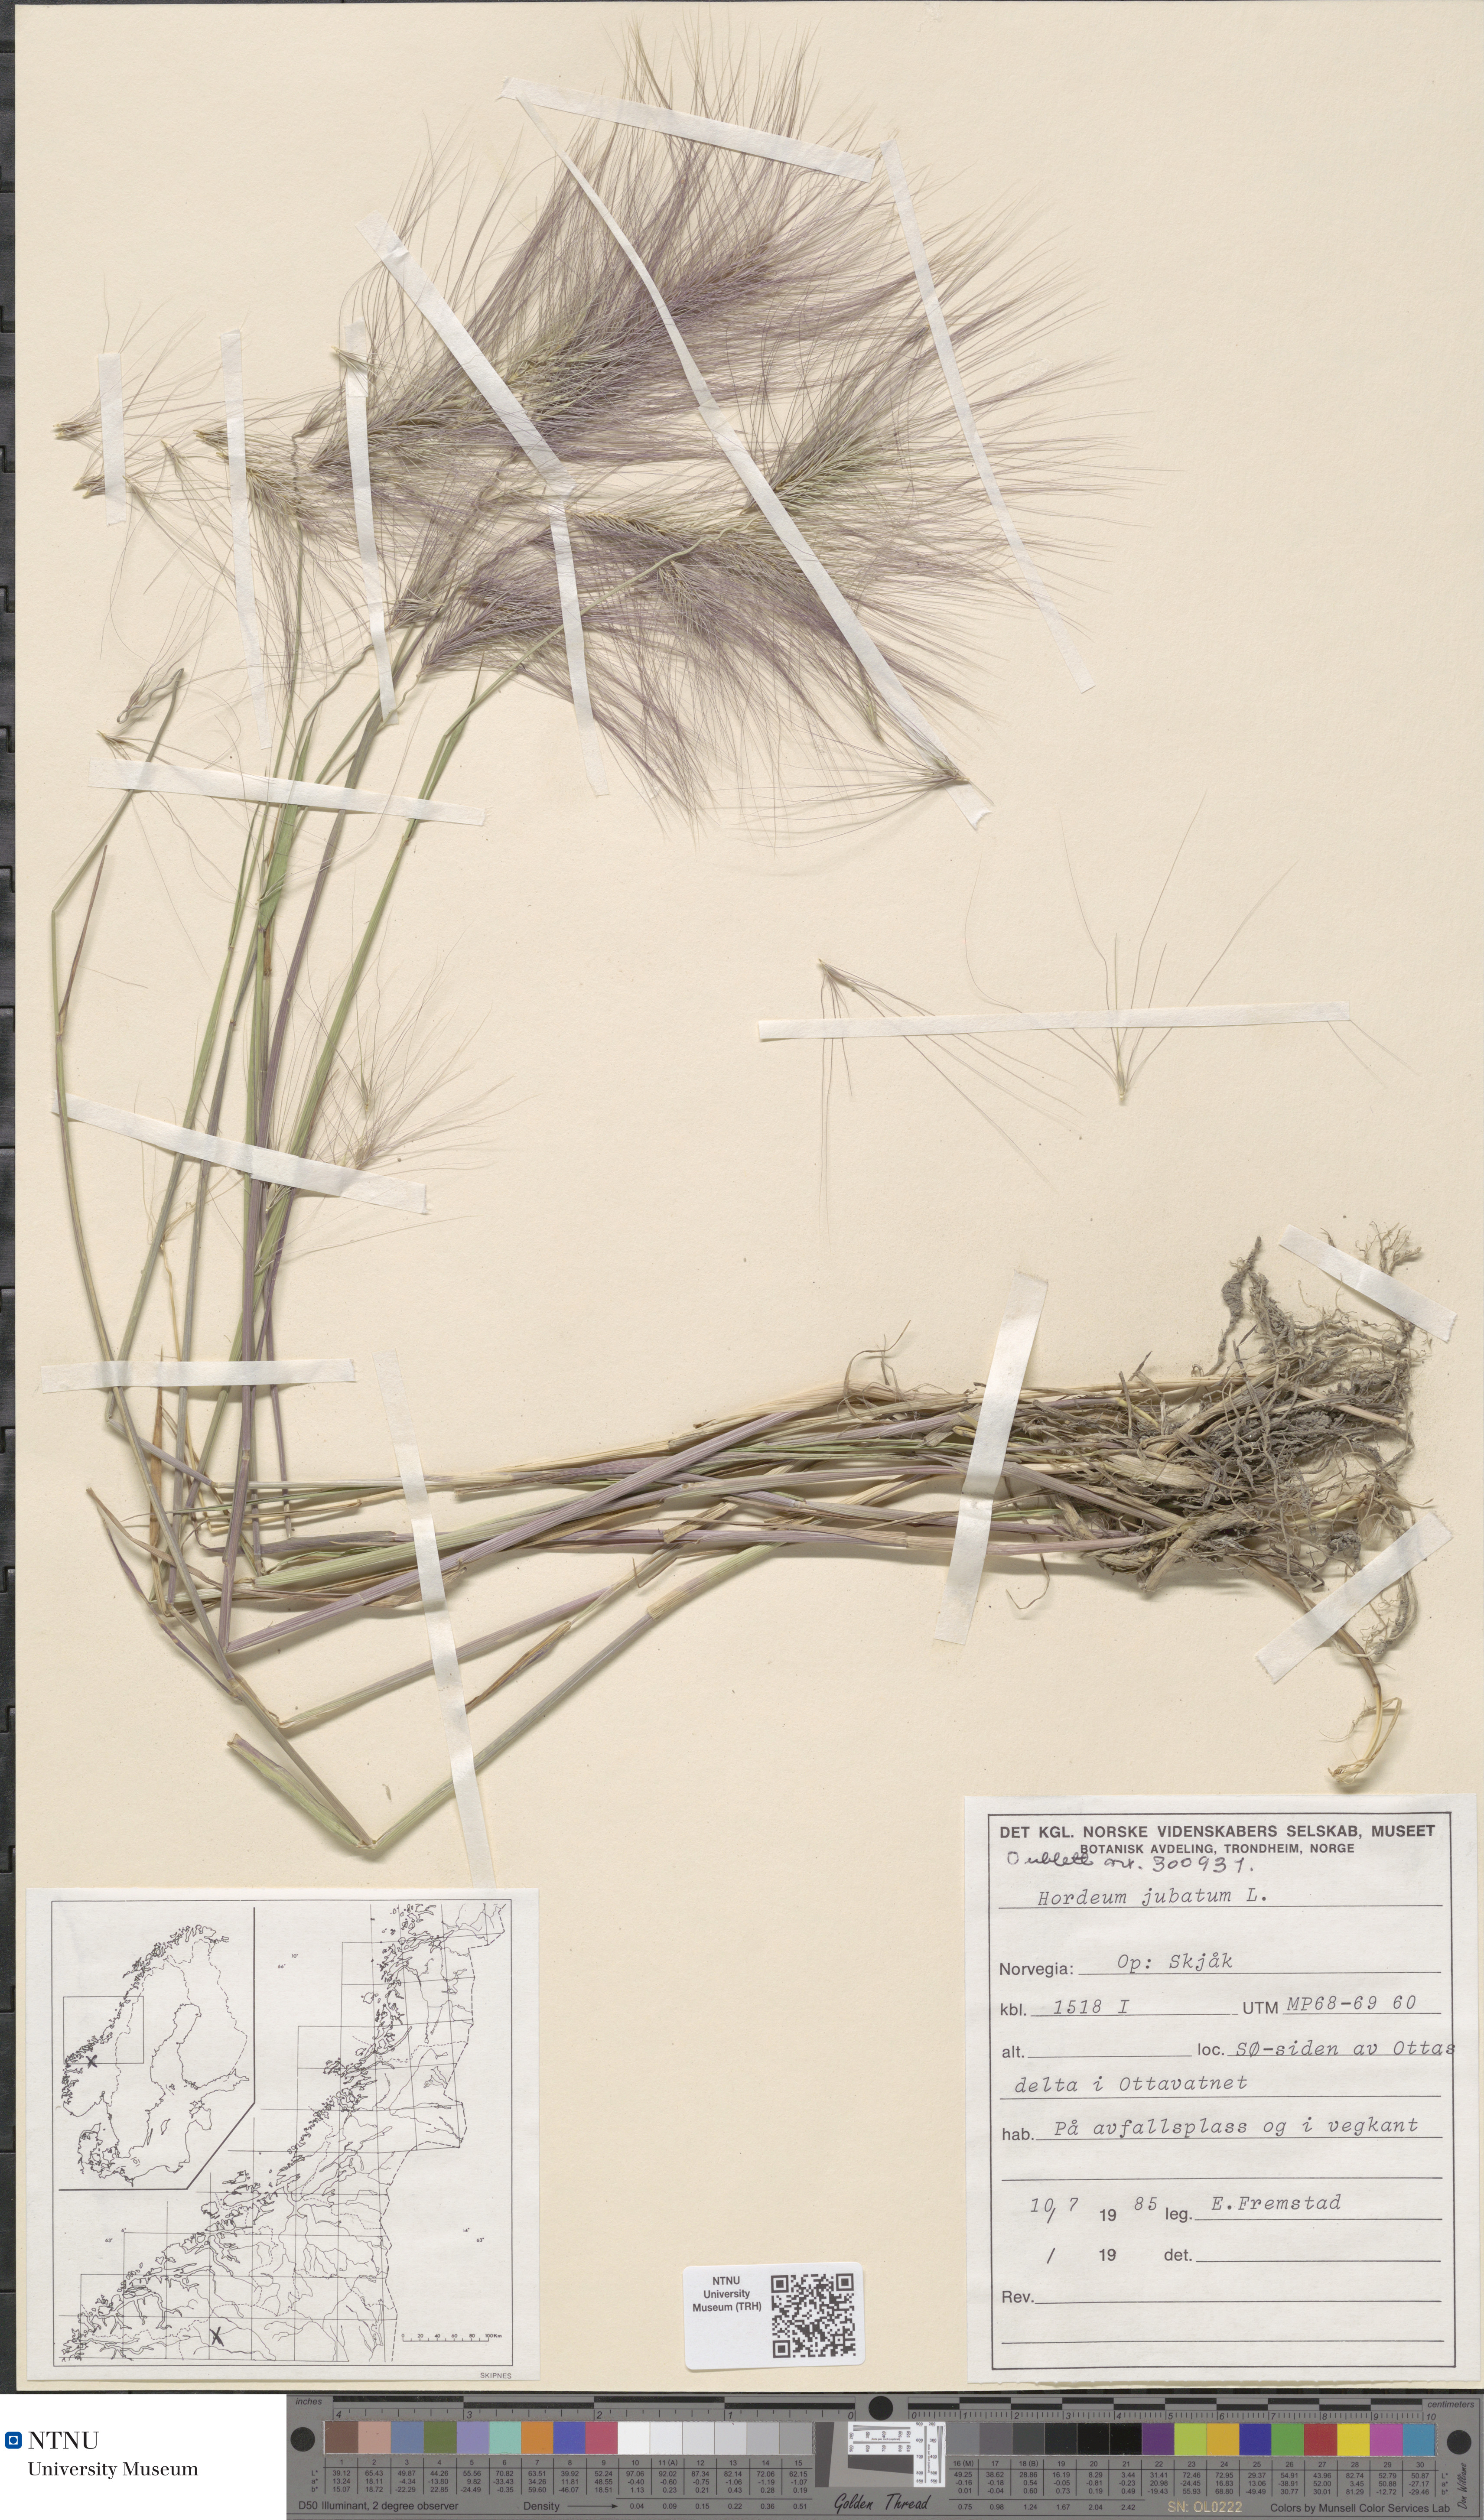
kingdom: Plantae
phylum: Tracheophyta
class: Liliopsida
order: Poales
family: Poaceae
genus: Hordeum
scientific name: Hordeum jubatum
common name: Foxtail barley
